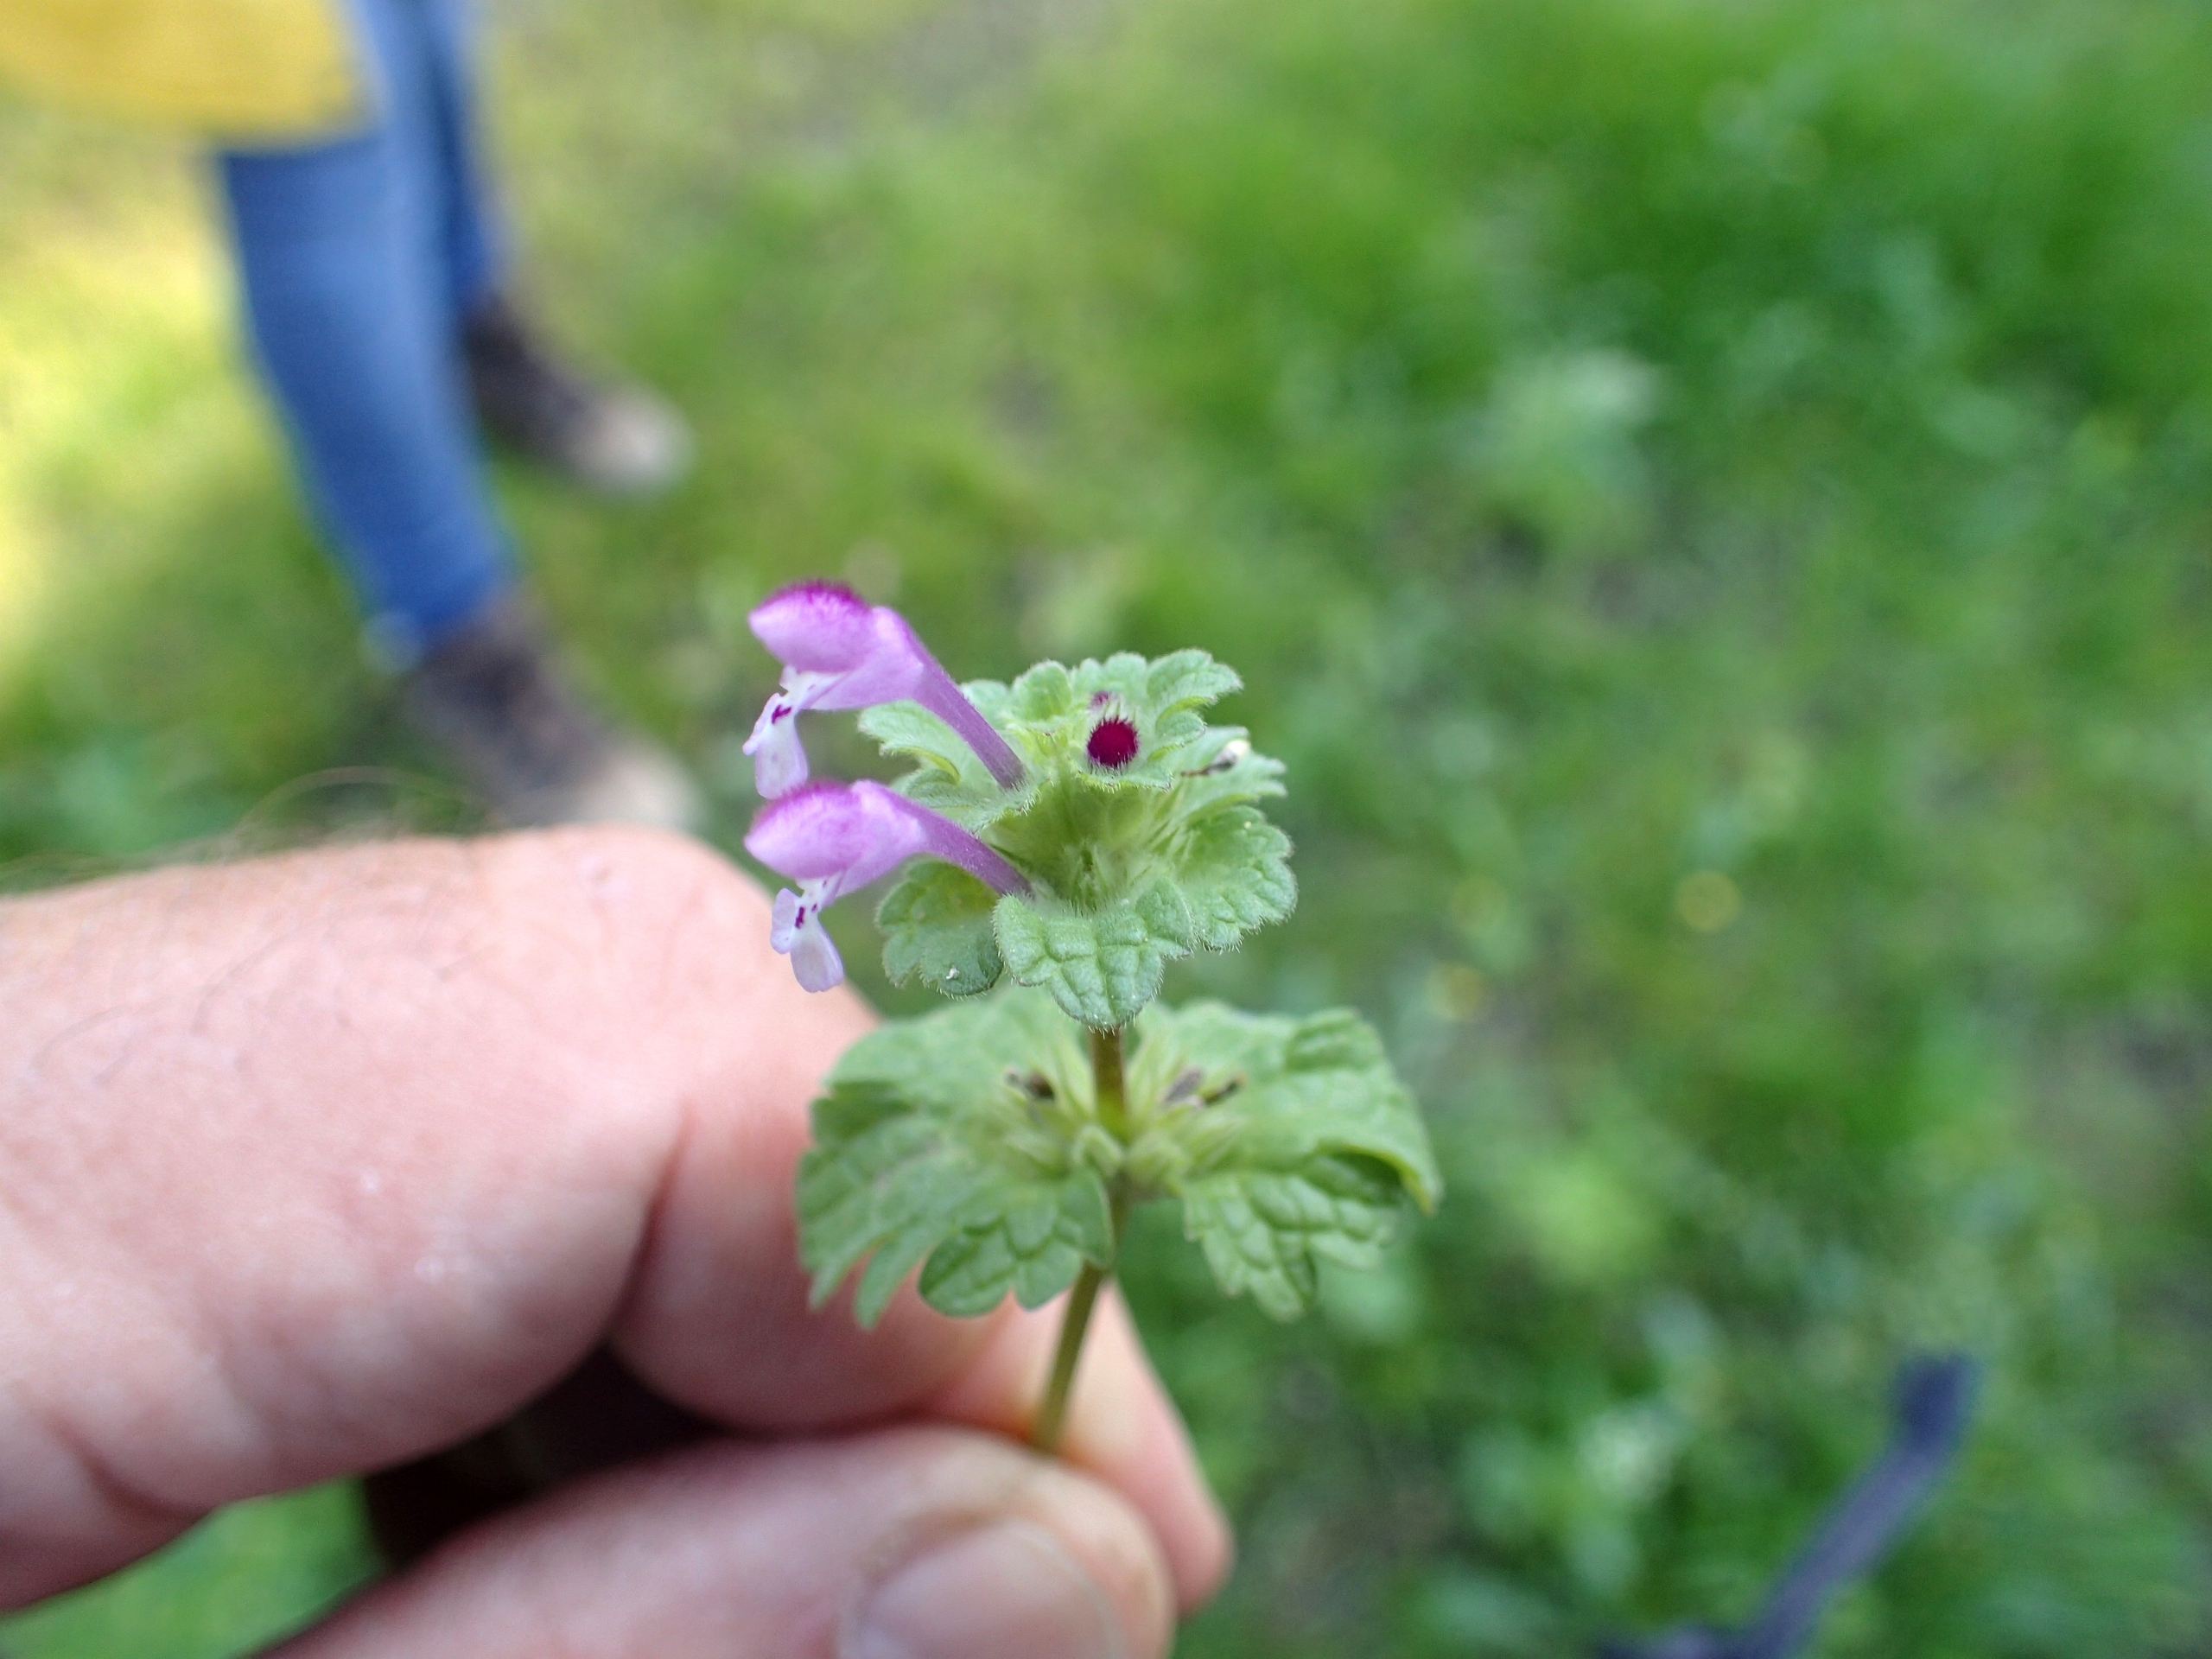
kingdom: Plantae
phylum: Tracheophyta
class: Magnoliopsida
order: Lamiales
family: Lamiaceae
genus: Lamium
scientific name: Lamium amplexicaule
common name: Liden tvetand
